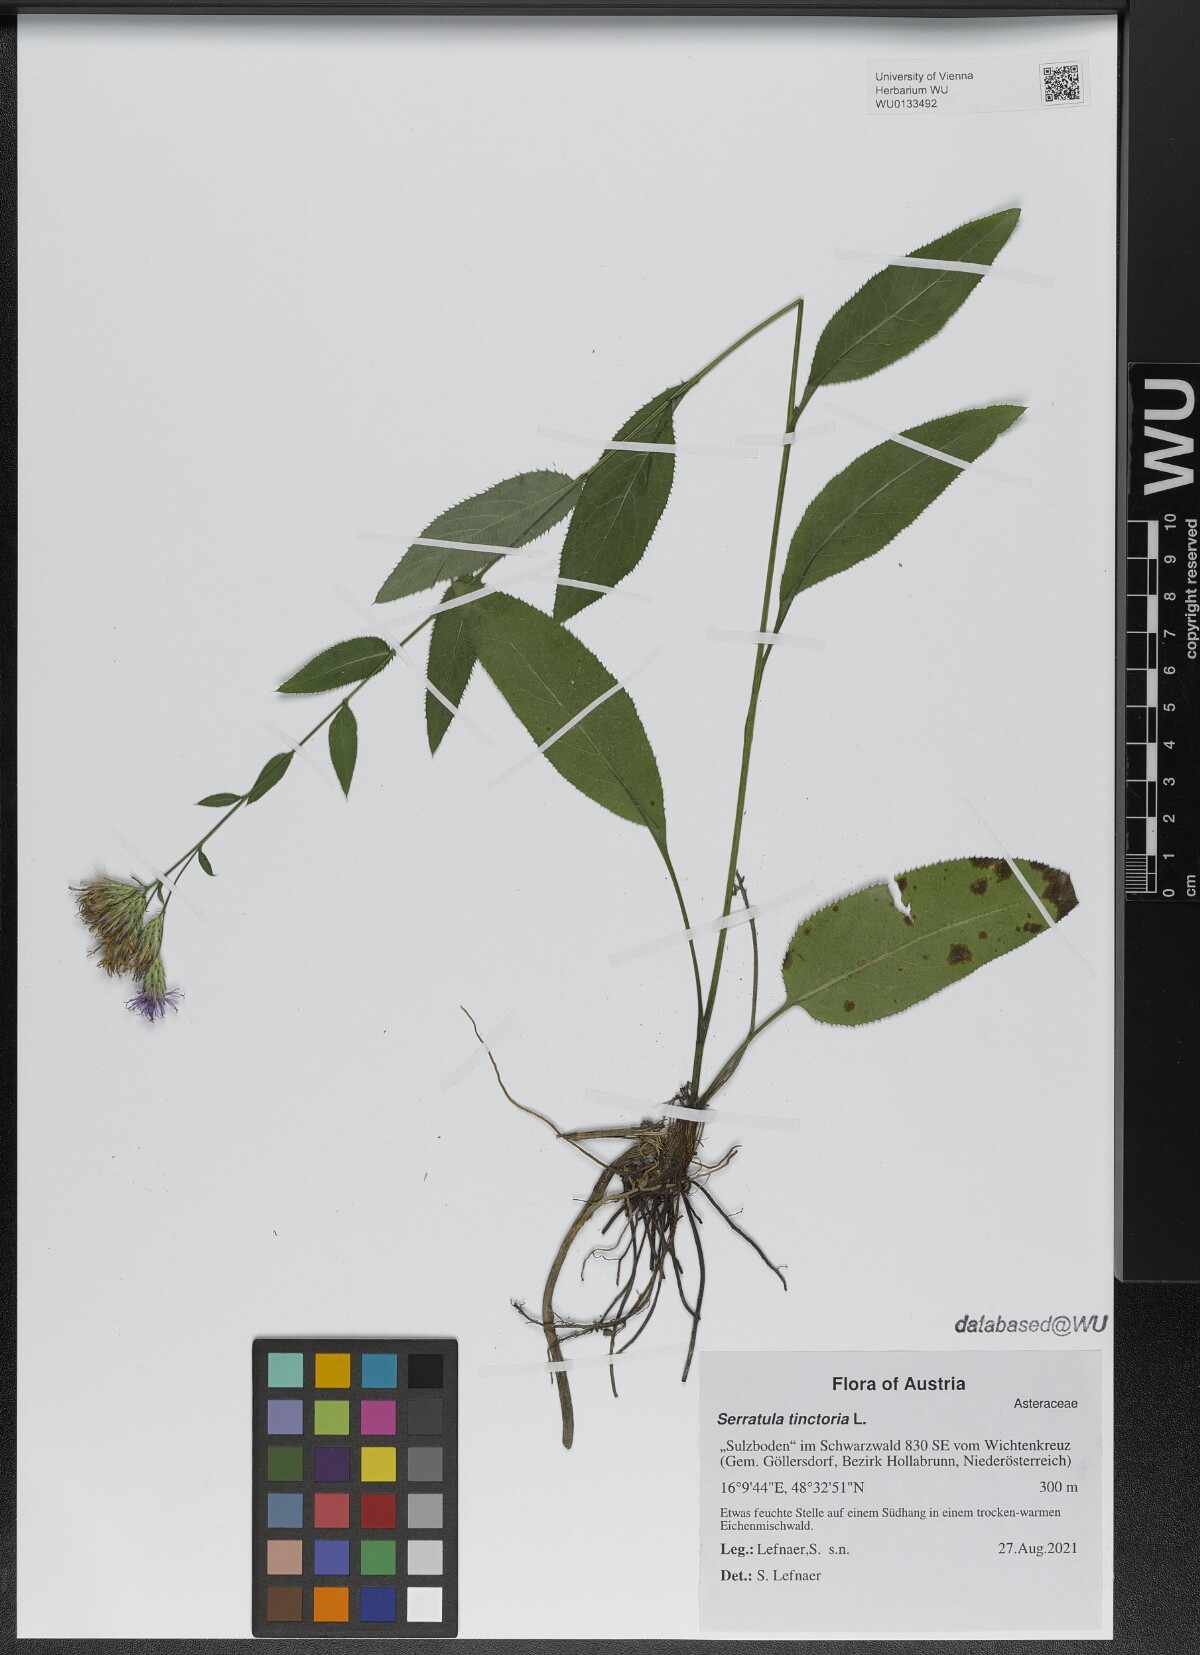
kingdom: Plantae
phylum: Tracheophyta
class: Magnoliopsida
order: Asterales
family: Asteraceae
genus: Serratula
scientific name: Serratula tinctoria
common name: Saw-wort
